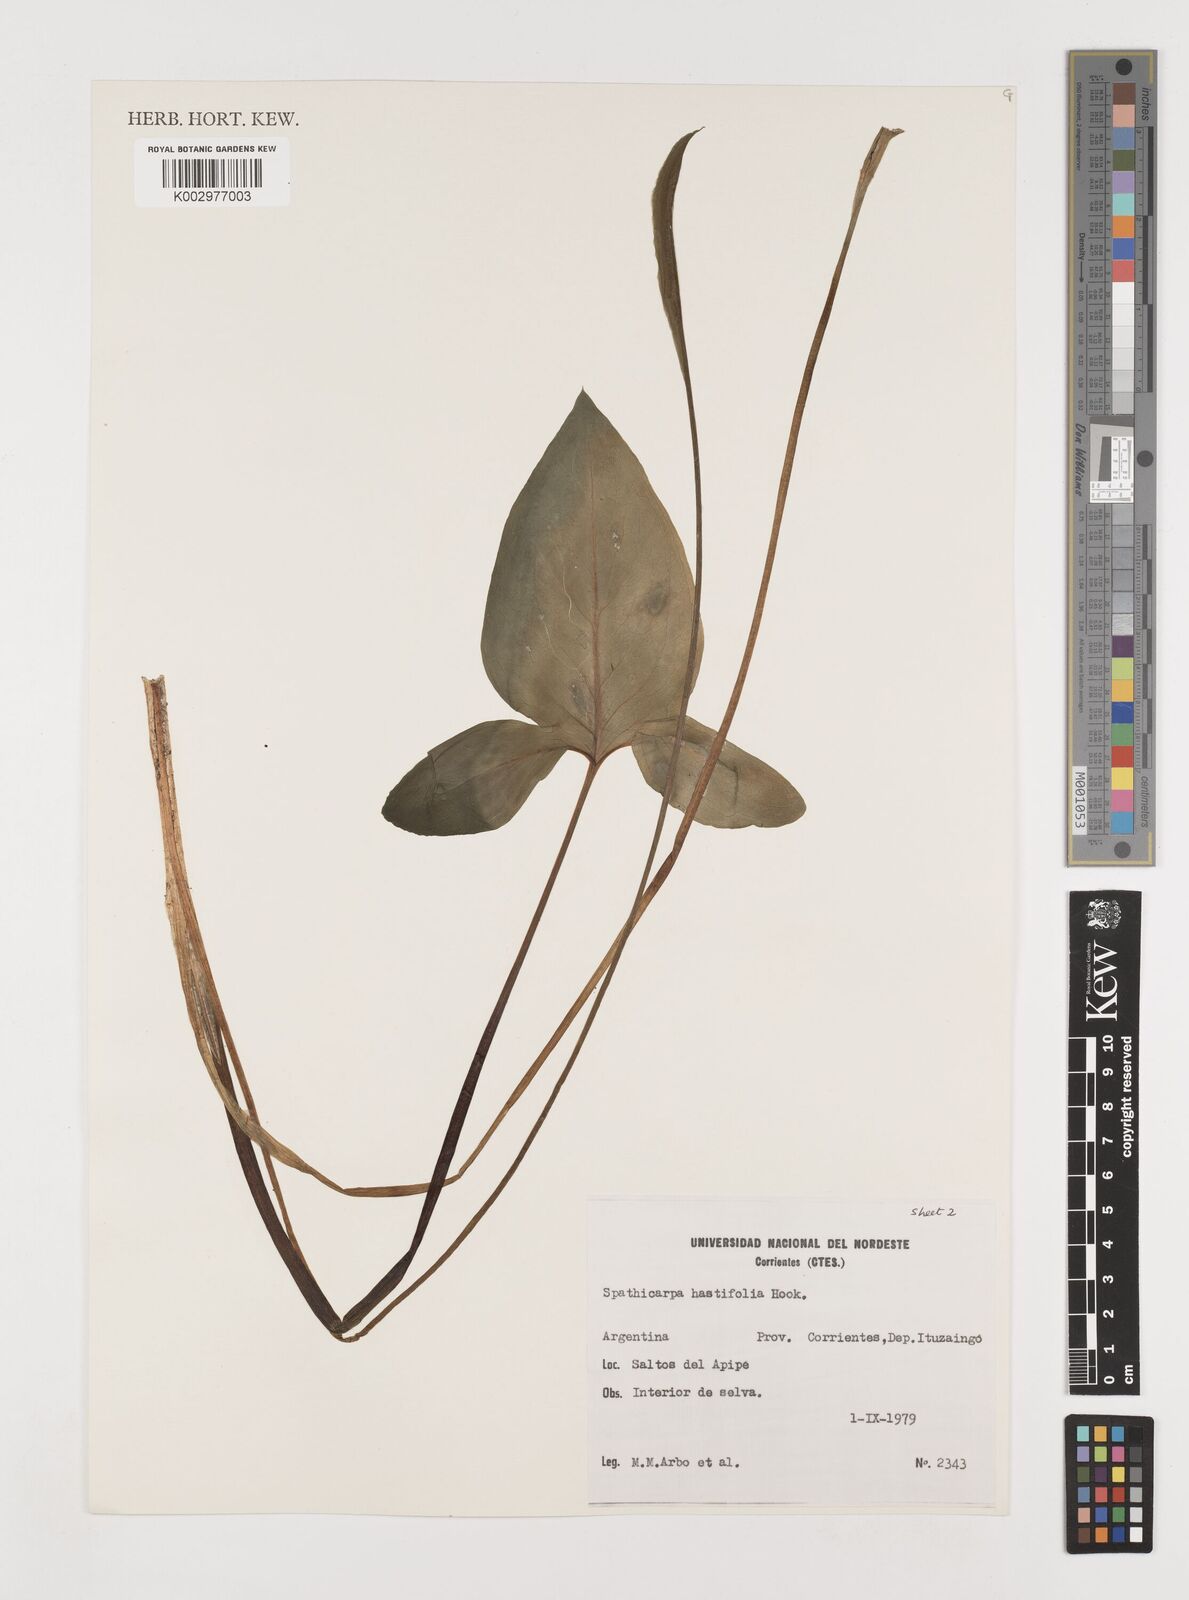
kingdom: Plantae
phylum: Tracheophyta
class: Liliopsida
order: Alismatales
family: Araceae
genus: Spathicarpa
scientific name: Spathicarpa hastifolia
